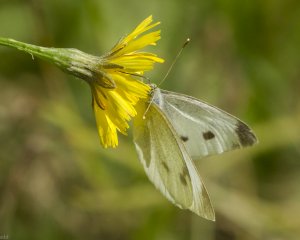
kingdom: Animalia
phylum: Arthropoda
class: Insecta
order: Lepidoptera
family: Pieridae
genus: Pieris
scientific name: Pieris rapae
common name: Cabbage White
